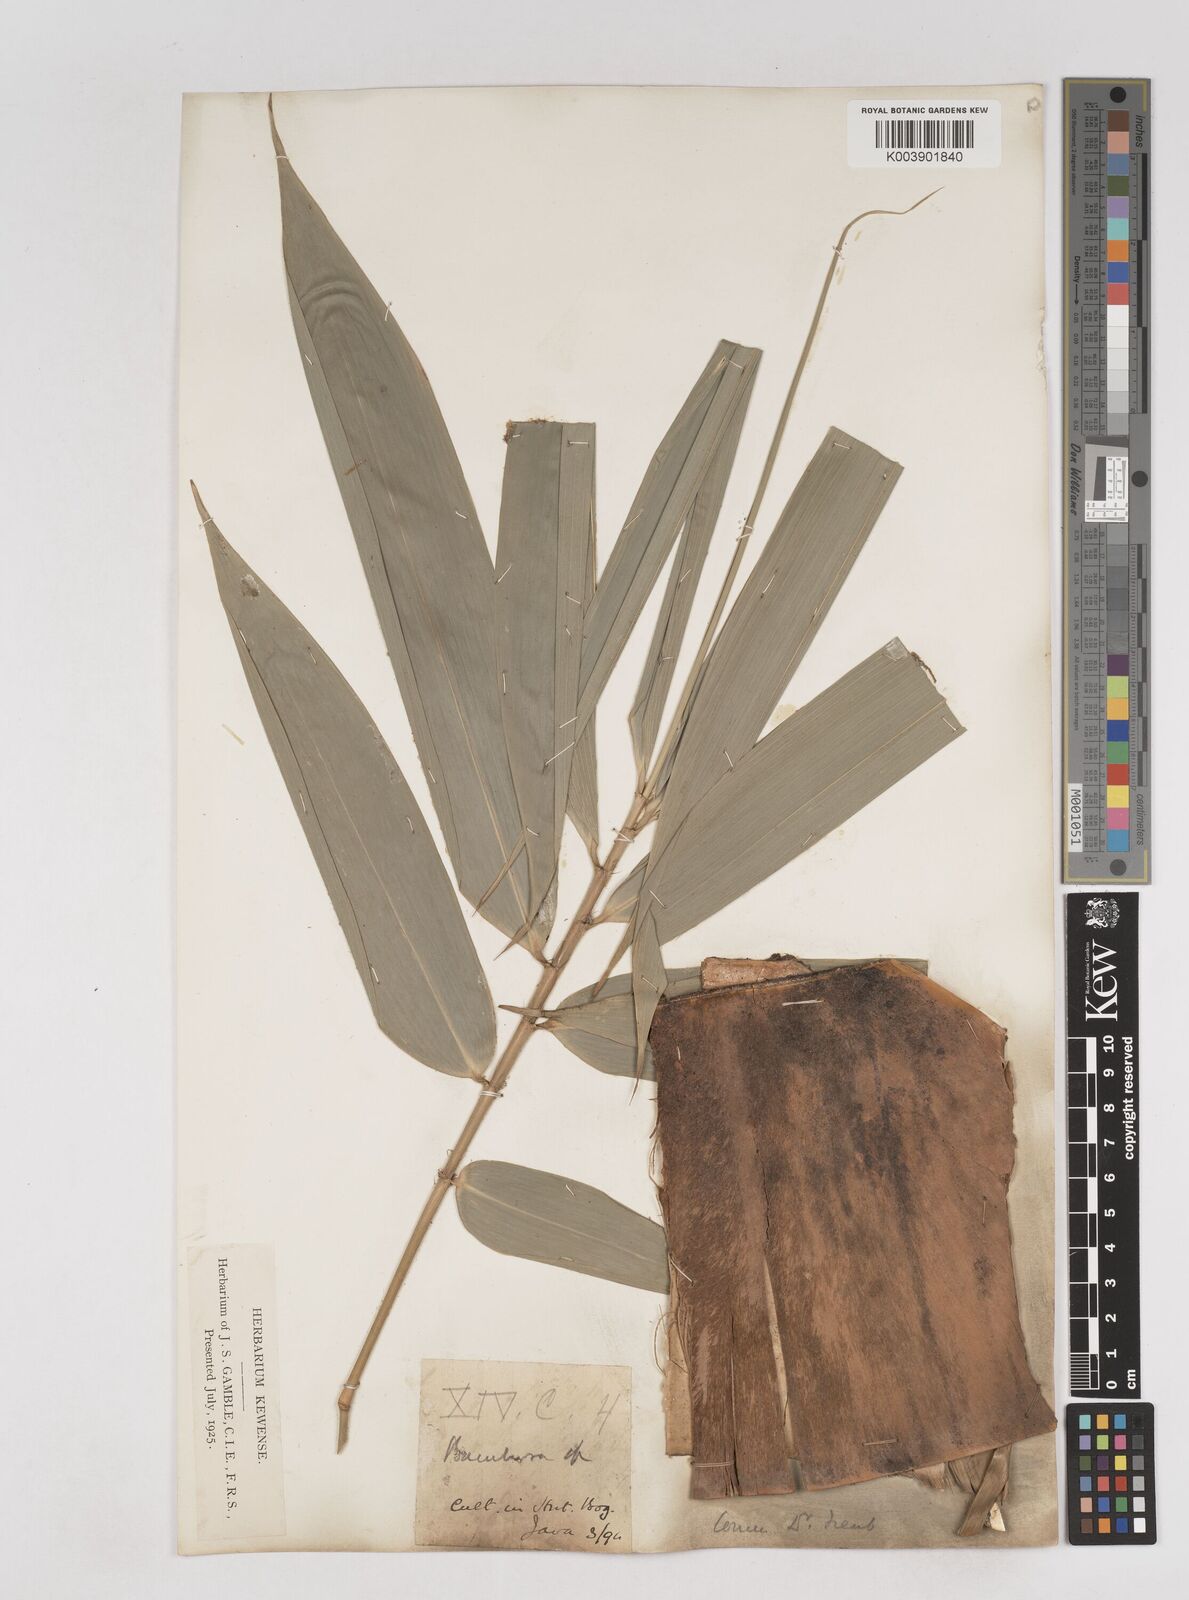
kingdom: Plantae
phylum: Tracheophyta
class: Liliopsida
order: Poales
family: Poaceae
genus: Schizostachyum
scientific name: Schizostachyum brachycladum
